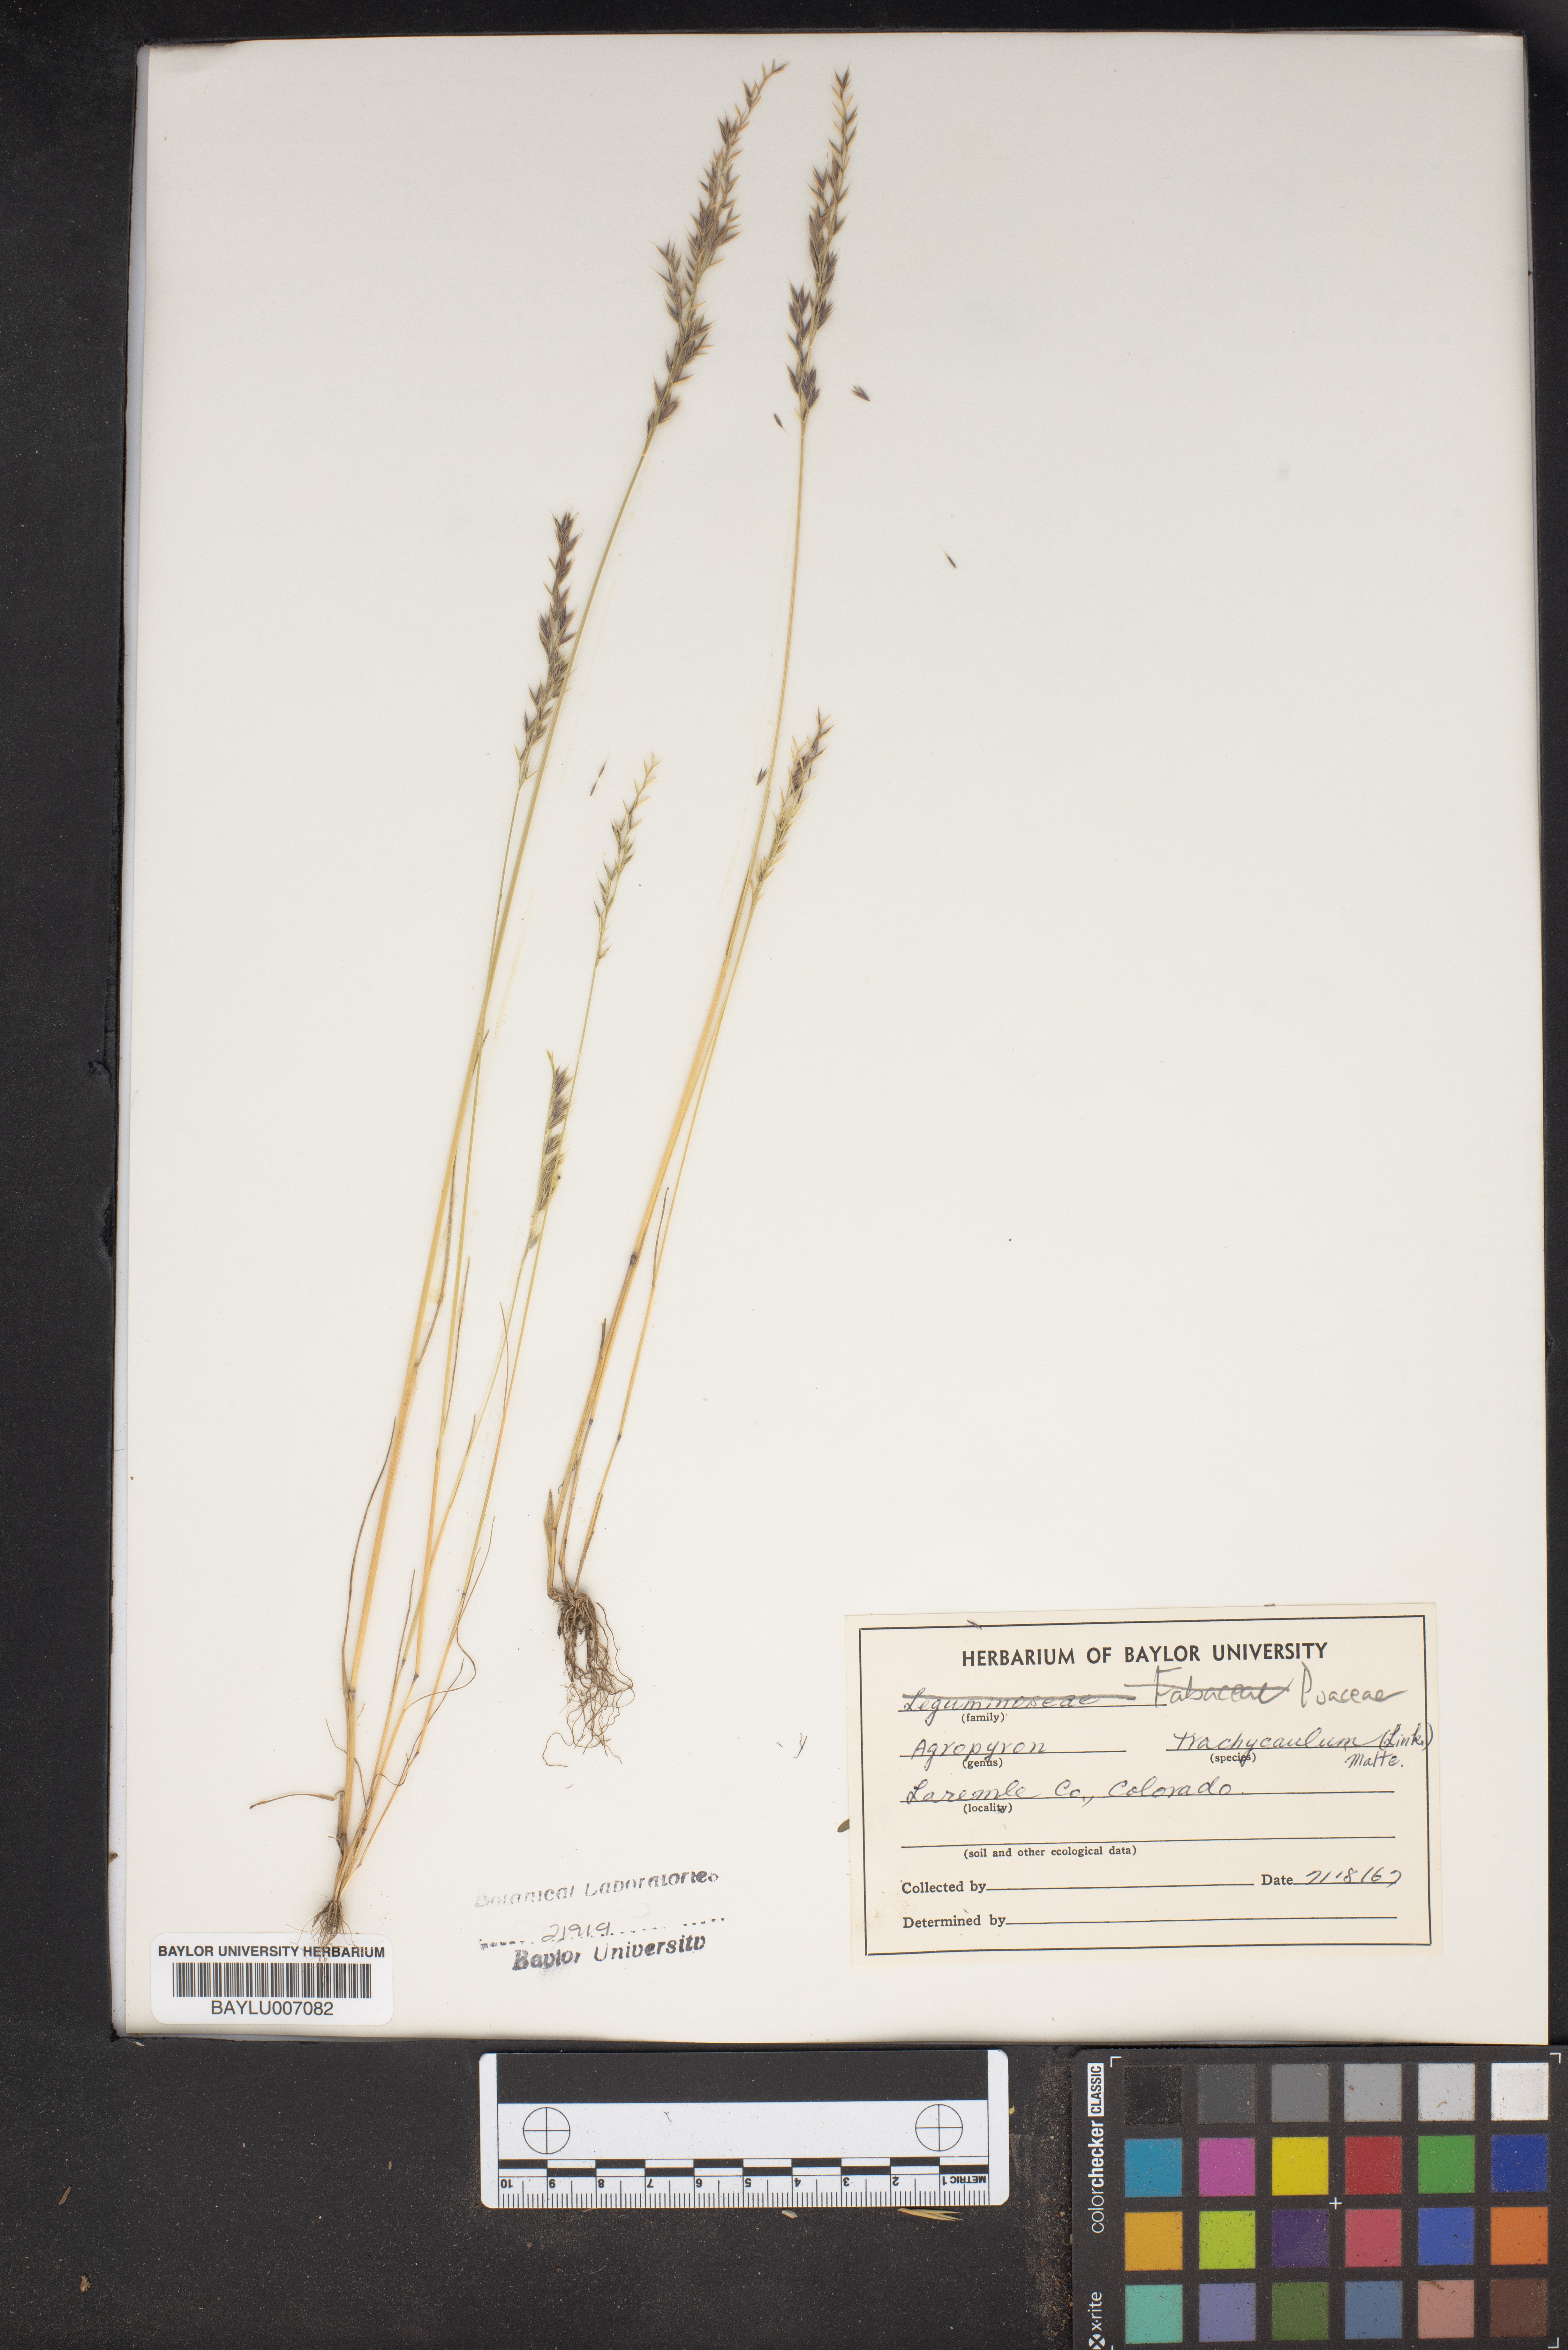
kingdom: Plantae
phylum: Tracheophyta
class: Liliopsida
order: Poales
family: Poaceae
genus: Elymus
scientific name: Elymus violaceus
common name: Arctic wheatgrass
